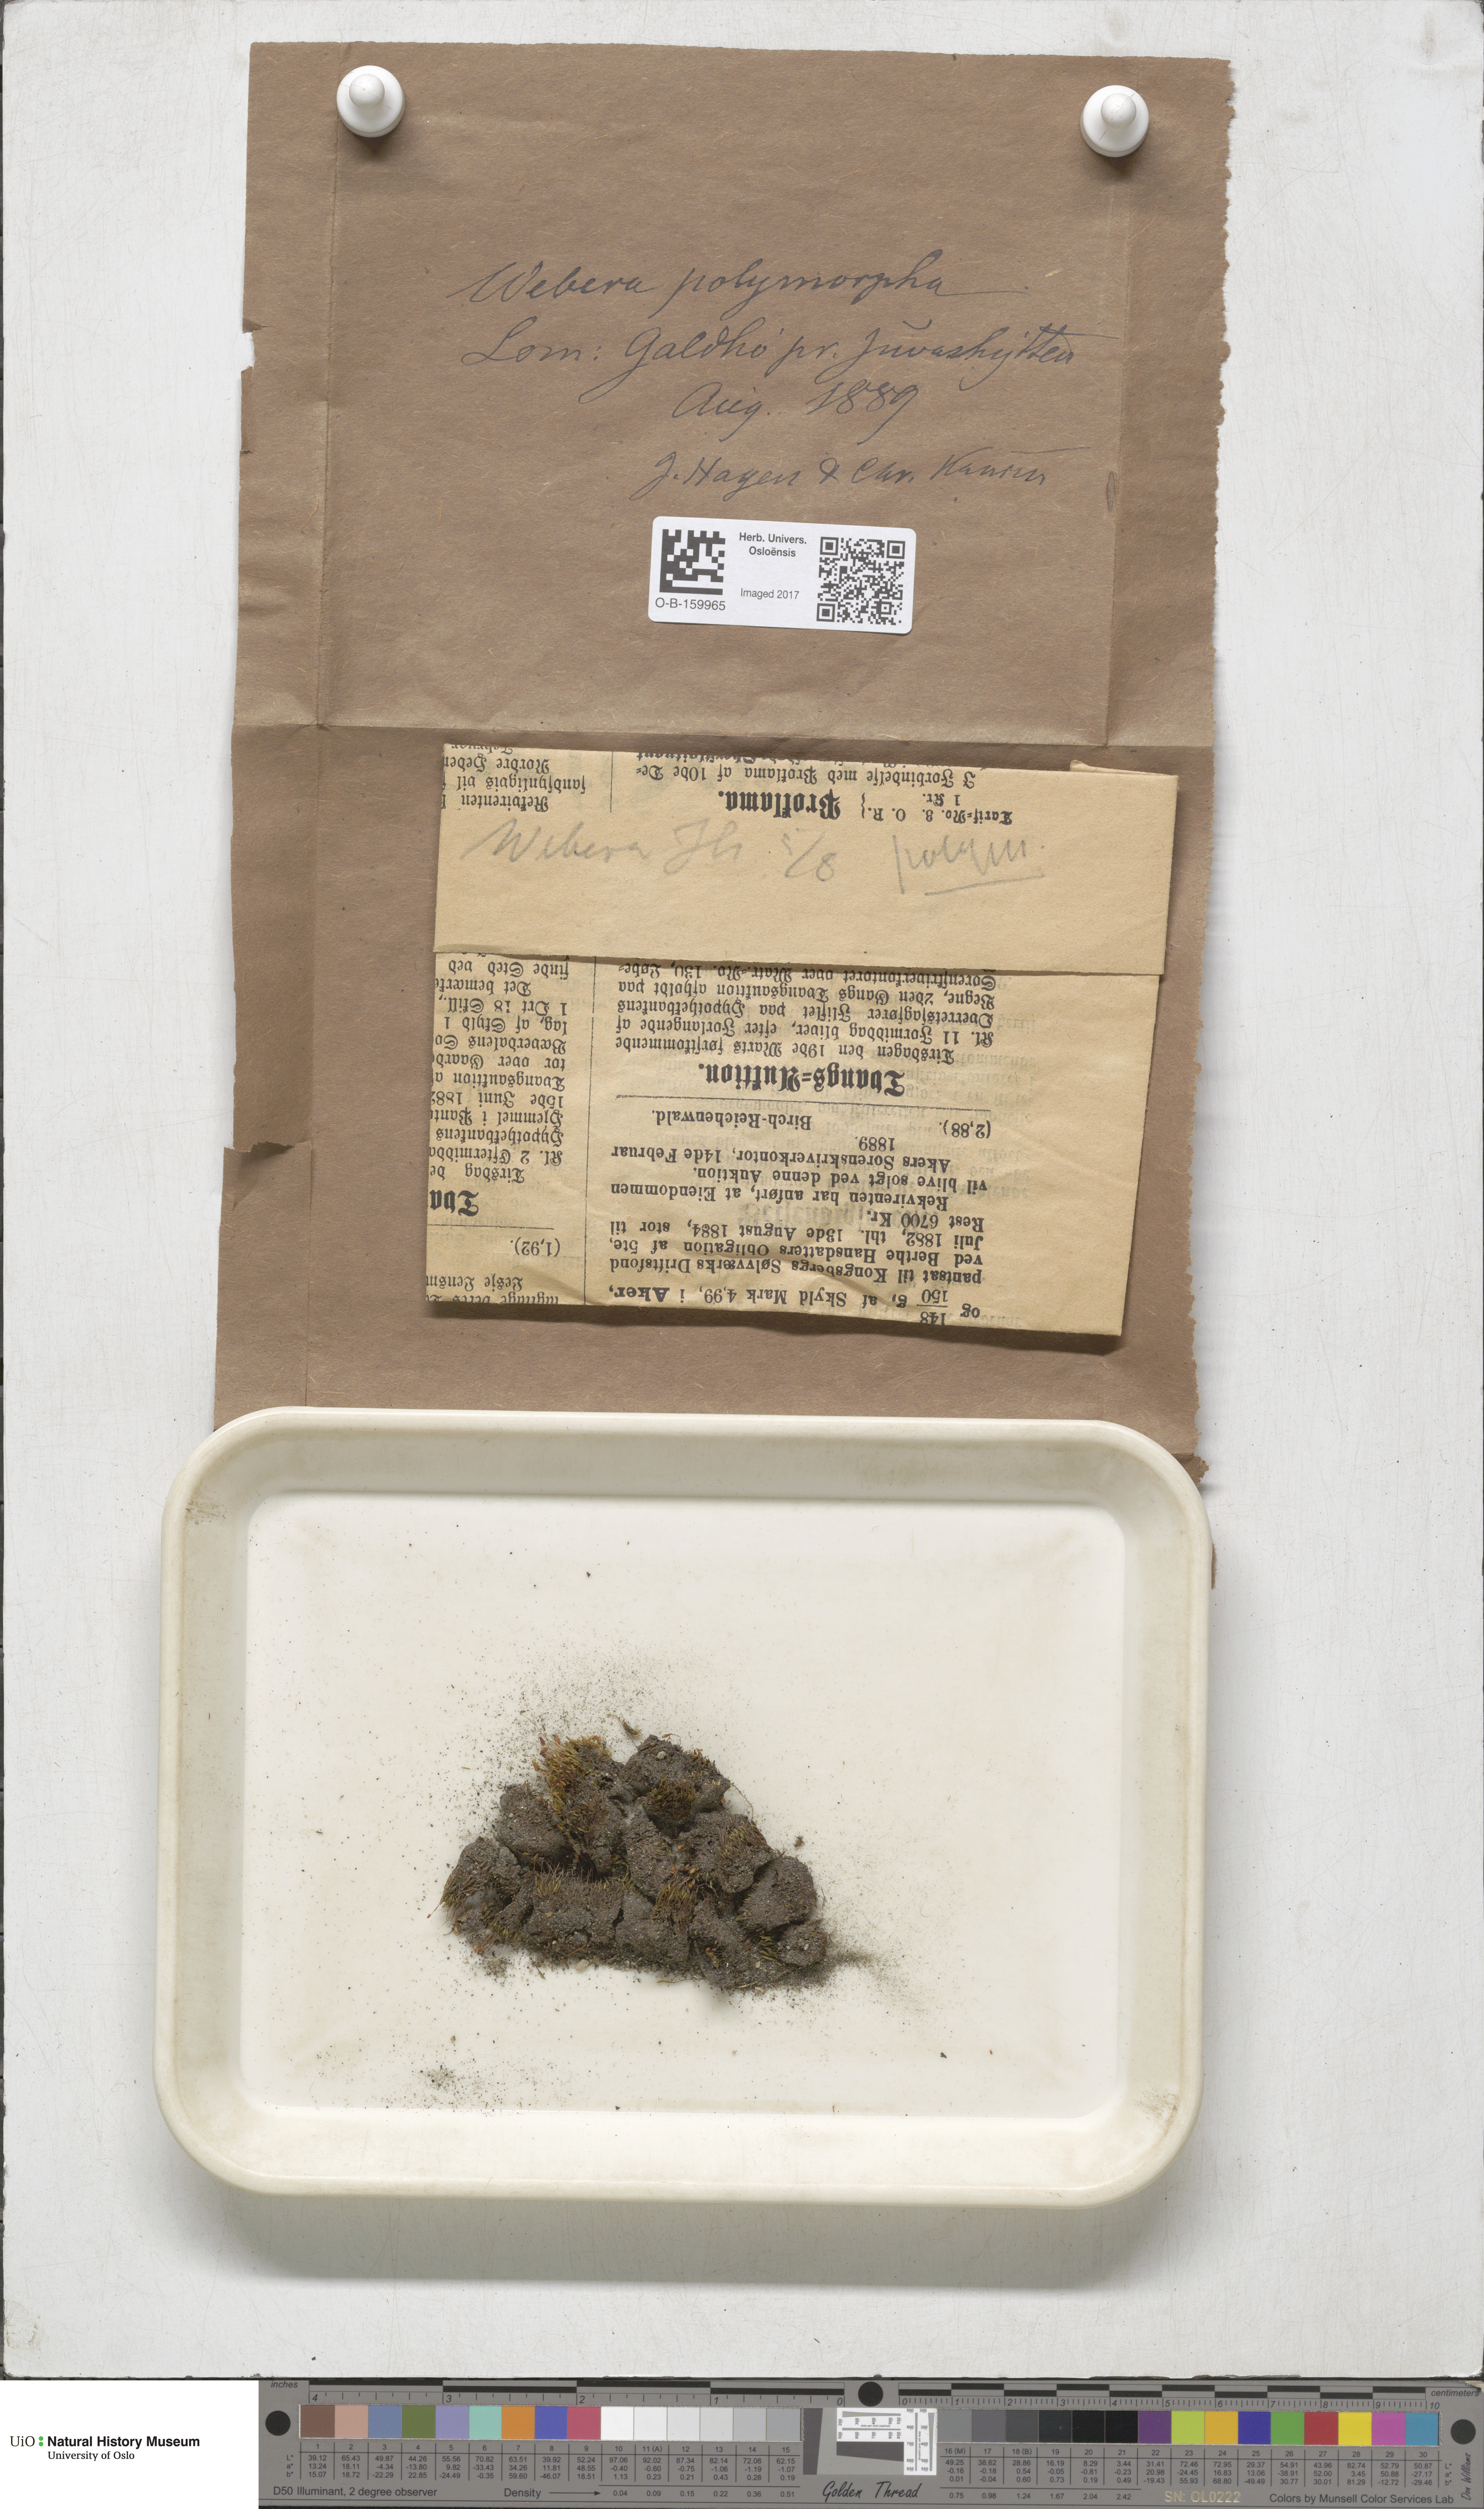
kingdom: Plantae
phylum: Bryophyta
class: Bryopsida
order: Bryales
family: Mniaceae
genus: Pohlia
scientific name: Pohlia elongata
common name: Long-fruited thread-moss
